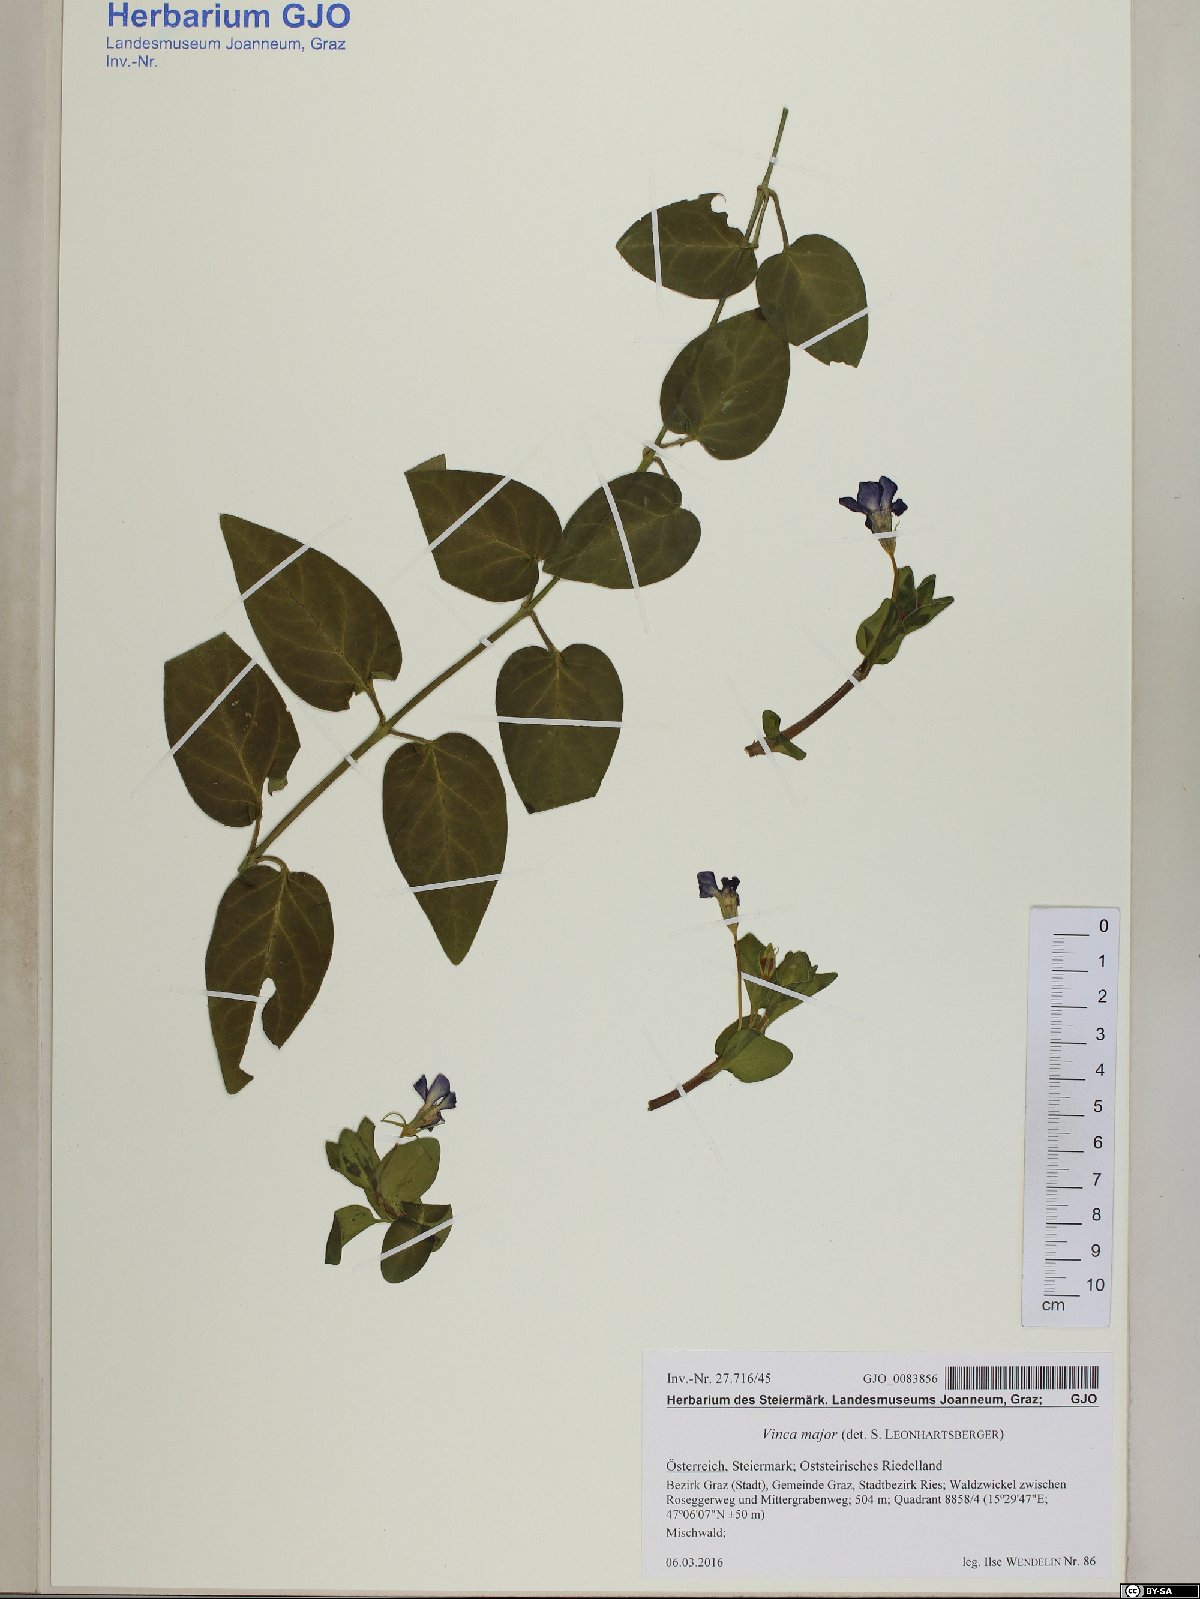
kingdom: Plantae
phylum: Tracheophyta
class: Magnoliopsida
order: Gentianales
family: Apocynaceae
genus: Vinca
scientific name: Vinca major
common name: Greater periwinkle
